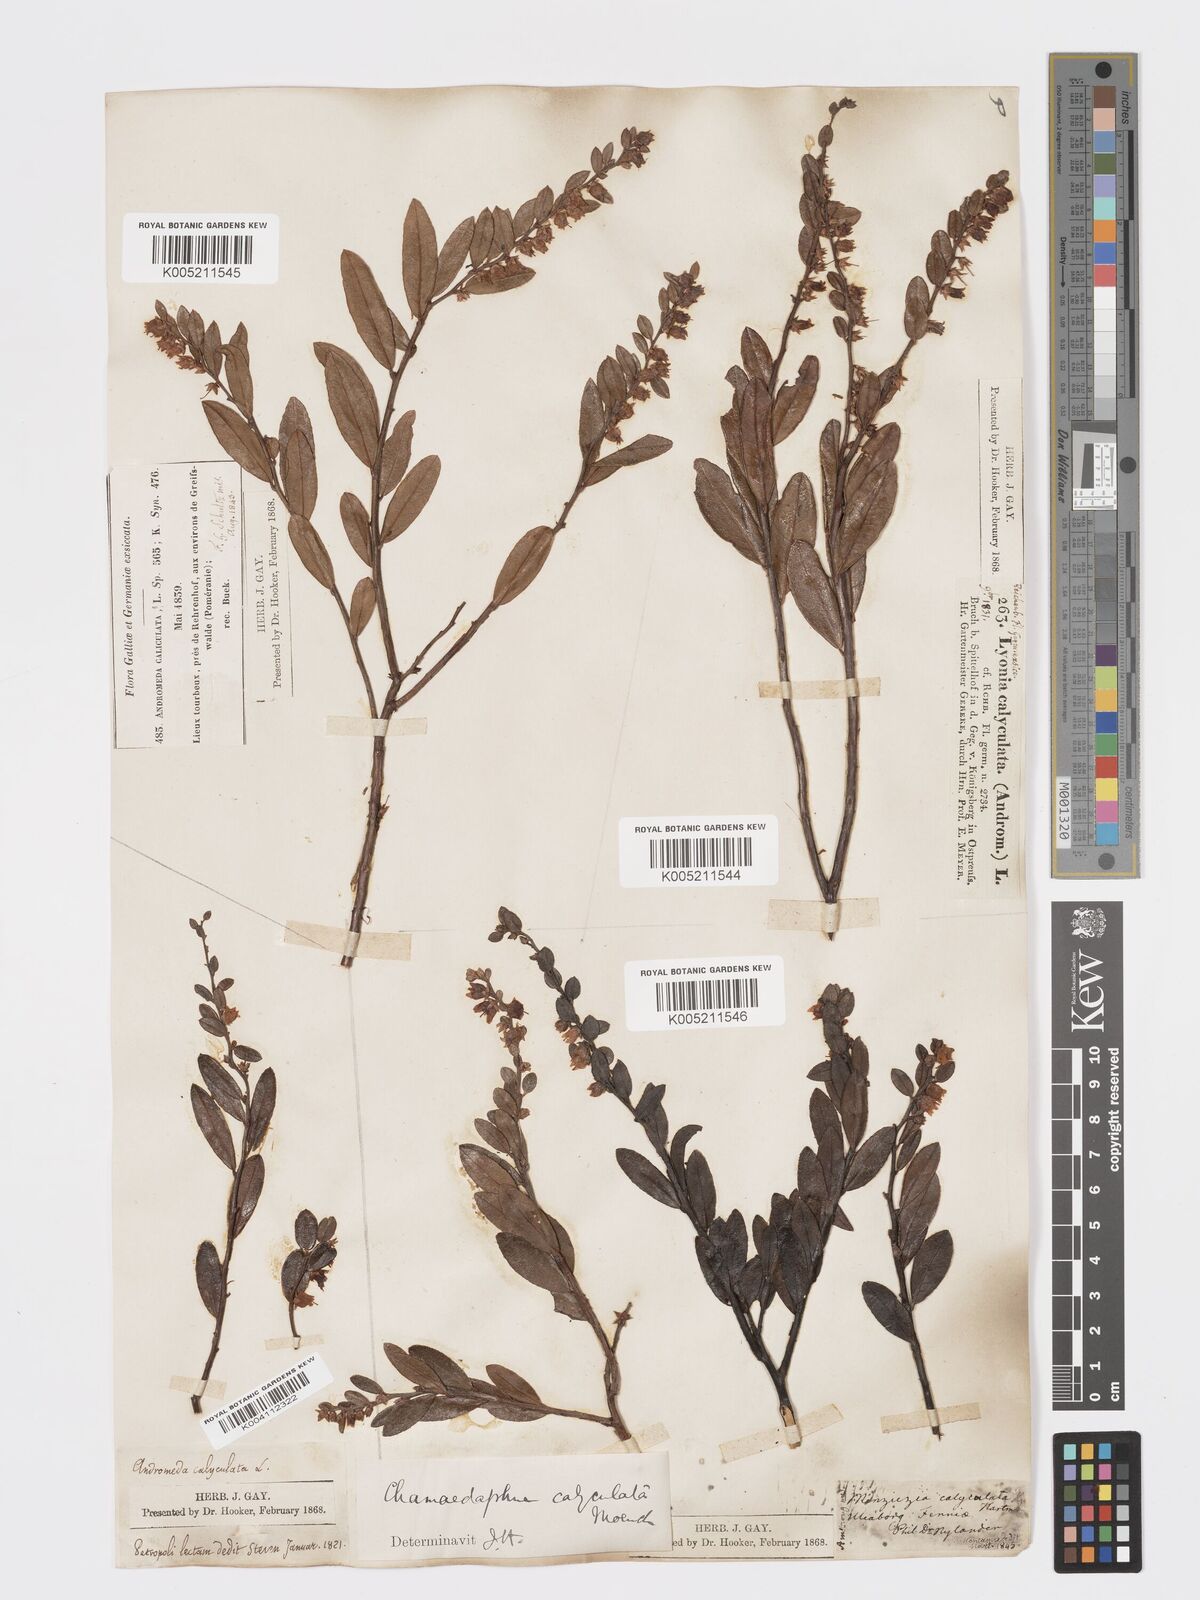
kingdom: Plantae
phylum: Tracheophyta
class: Magnoliopsida
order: Ericales
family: Ericaceae
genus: Chamaedaphne
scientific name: Chamaedaphne calyculata
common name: Leatherleaf
